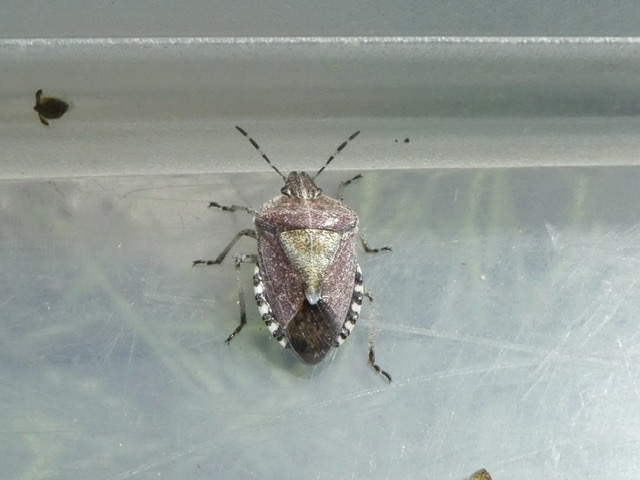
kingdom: Animalia
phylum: Arthropoda
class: Insecta
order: Hemiptera
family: Pentatomidae
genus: Dolycoris
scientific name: Dolycoris baccarum
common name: Almindelig bærtæge
